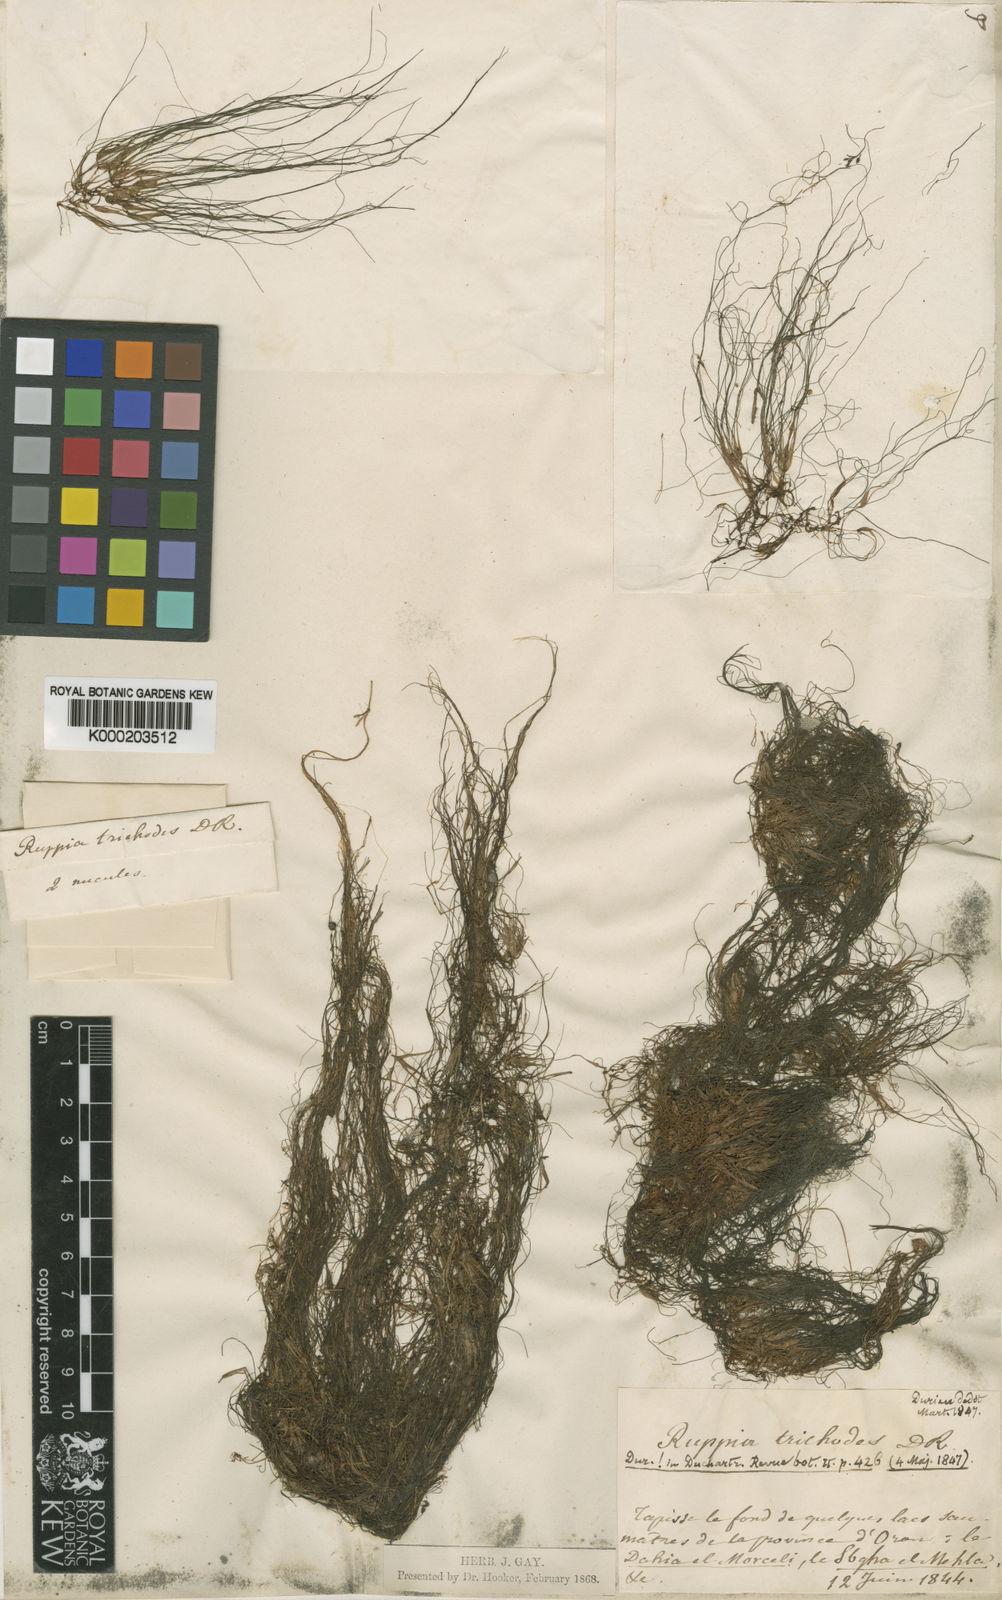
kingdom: Plantae
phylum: Tracheophyta
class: Liliopsida
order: Alismatales
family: Ruppiaceae
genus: Ruppia
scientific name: Ruppia maritima
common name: Beaked tasselweed
